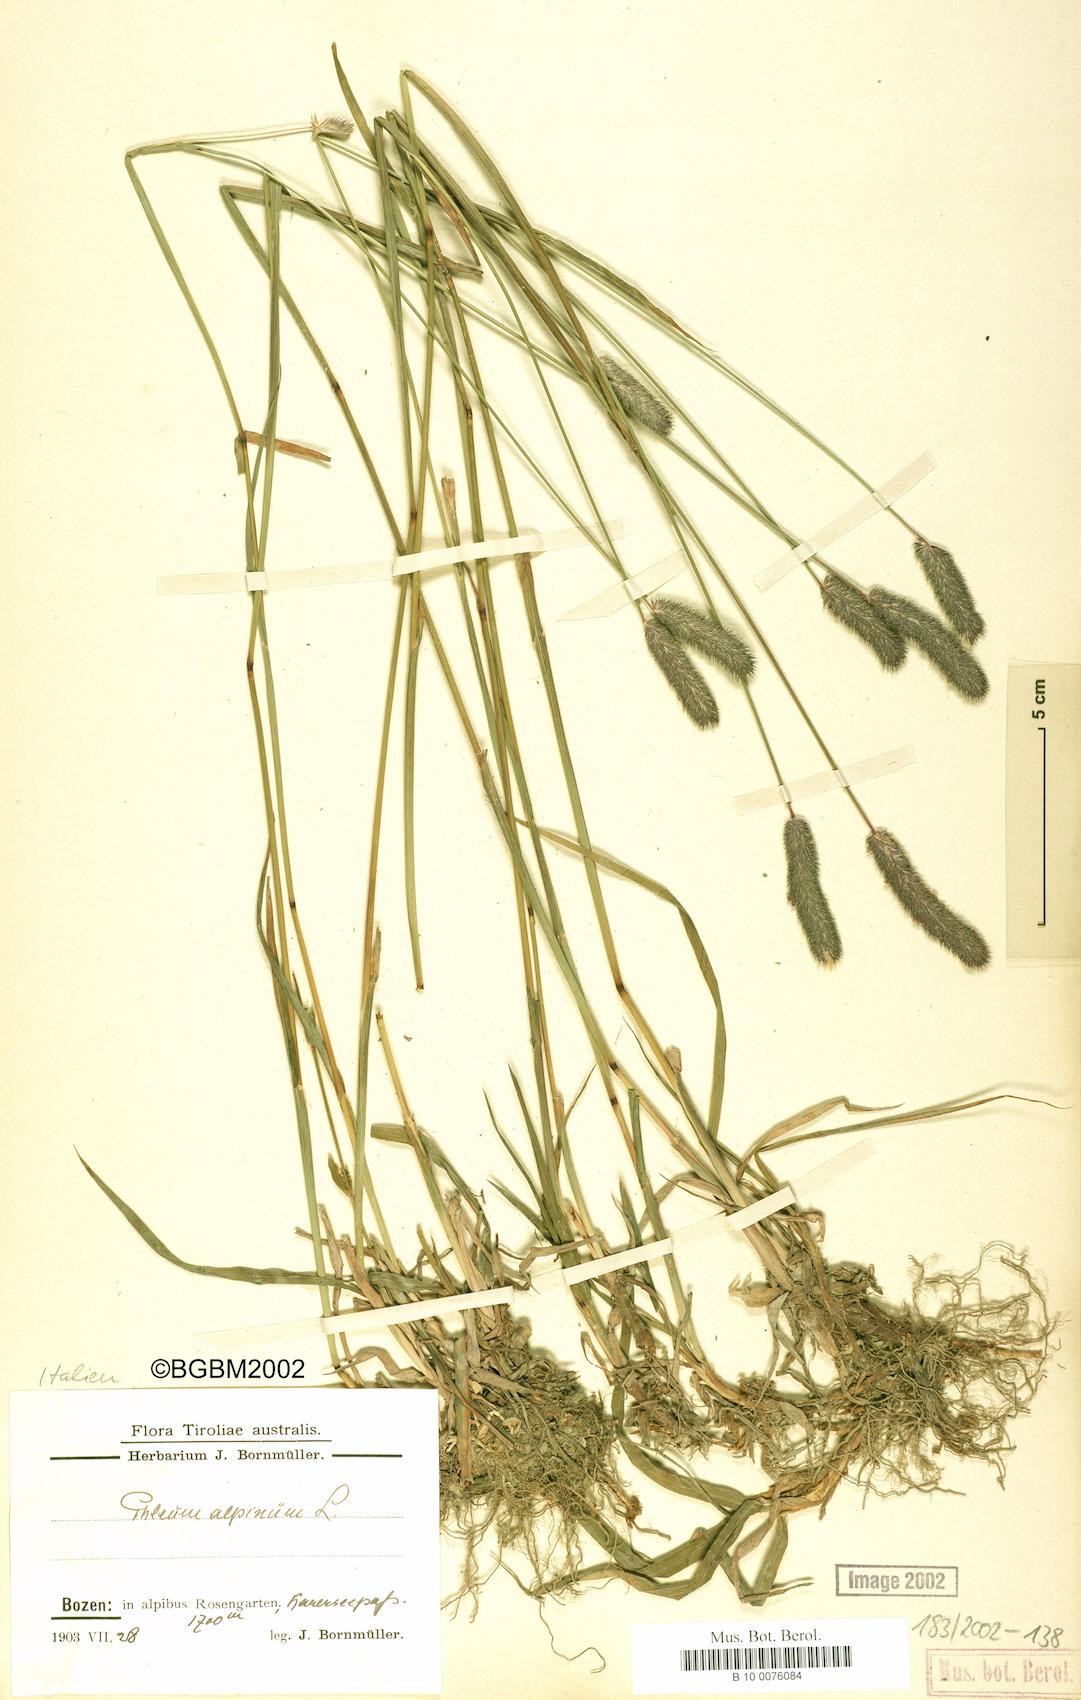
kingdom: Plantae
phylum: Tracheophyta
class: Liliopsida
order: Poales
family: Poaceae
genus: Phleum
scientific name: Phleum alpinum
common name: Alpine cat's-tail
